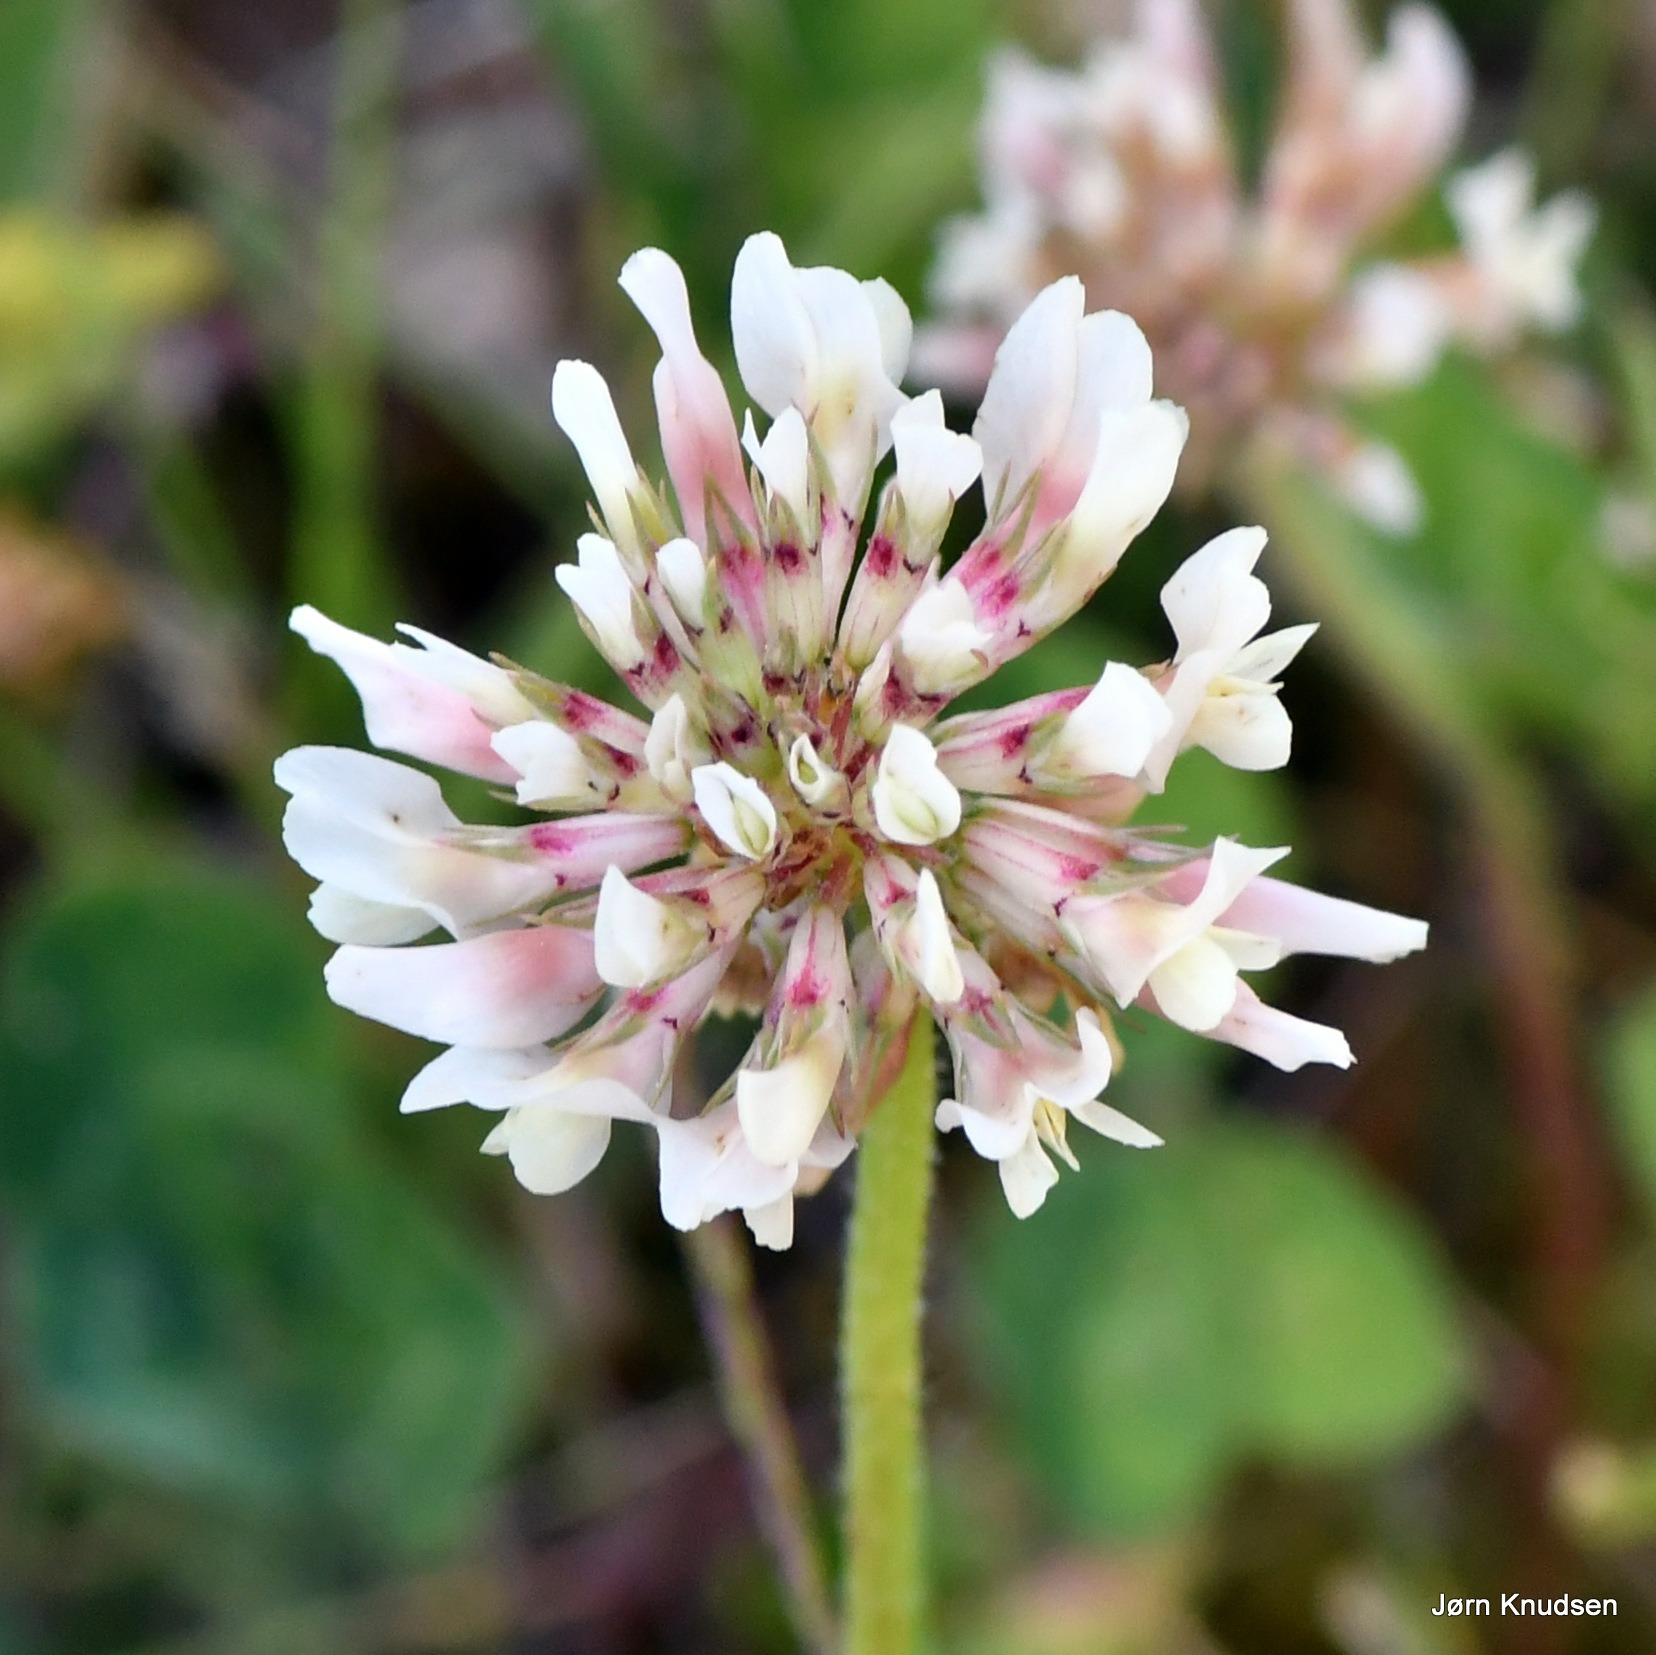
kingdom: Plantae
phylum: Tracheophyta
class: Magnoliopsida
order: Fabales
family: Fabaceae
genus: Trifolium
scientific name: Trifolium repens
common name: Hvid-kløver
